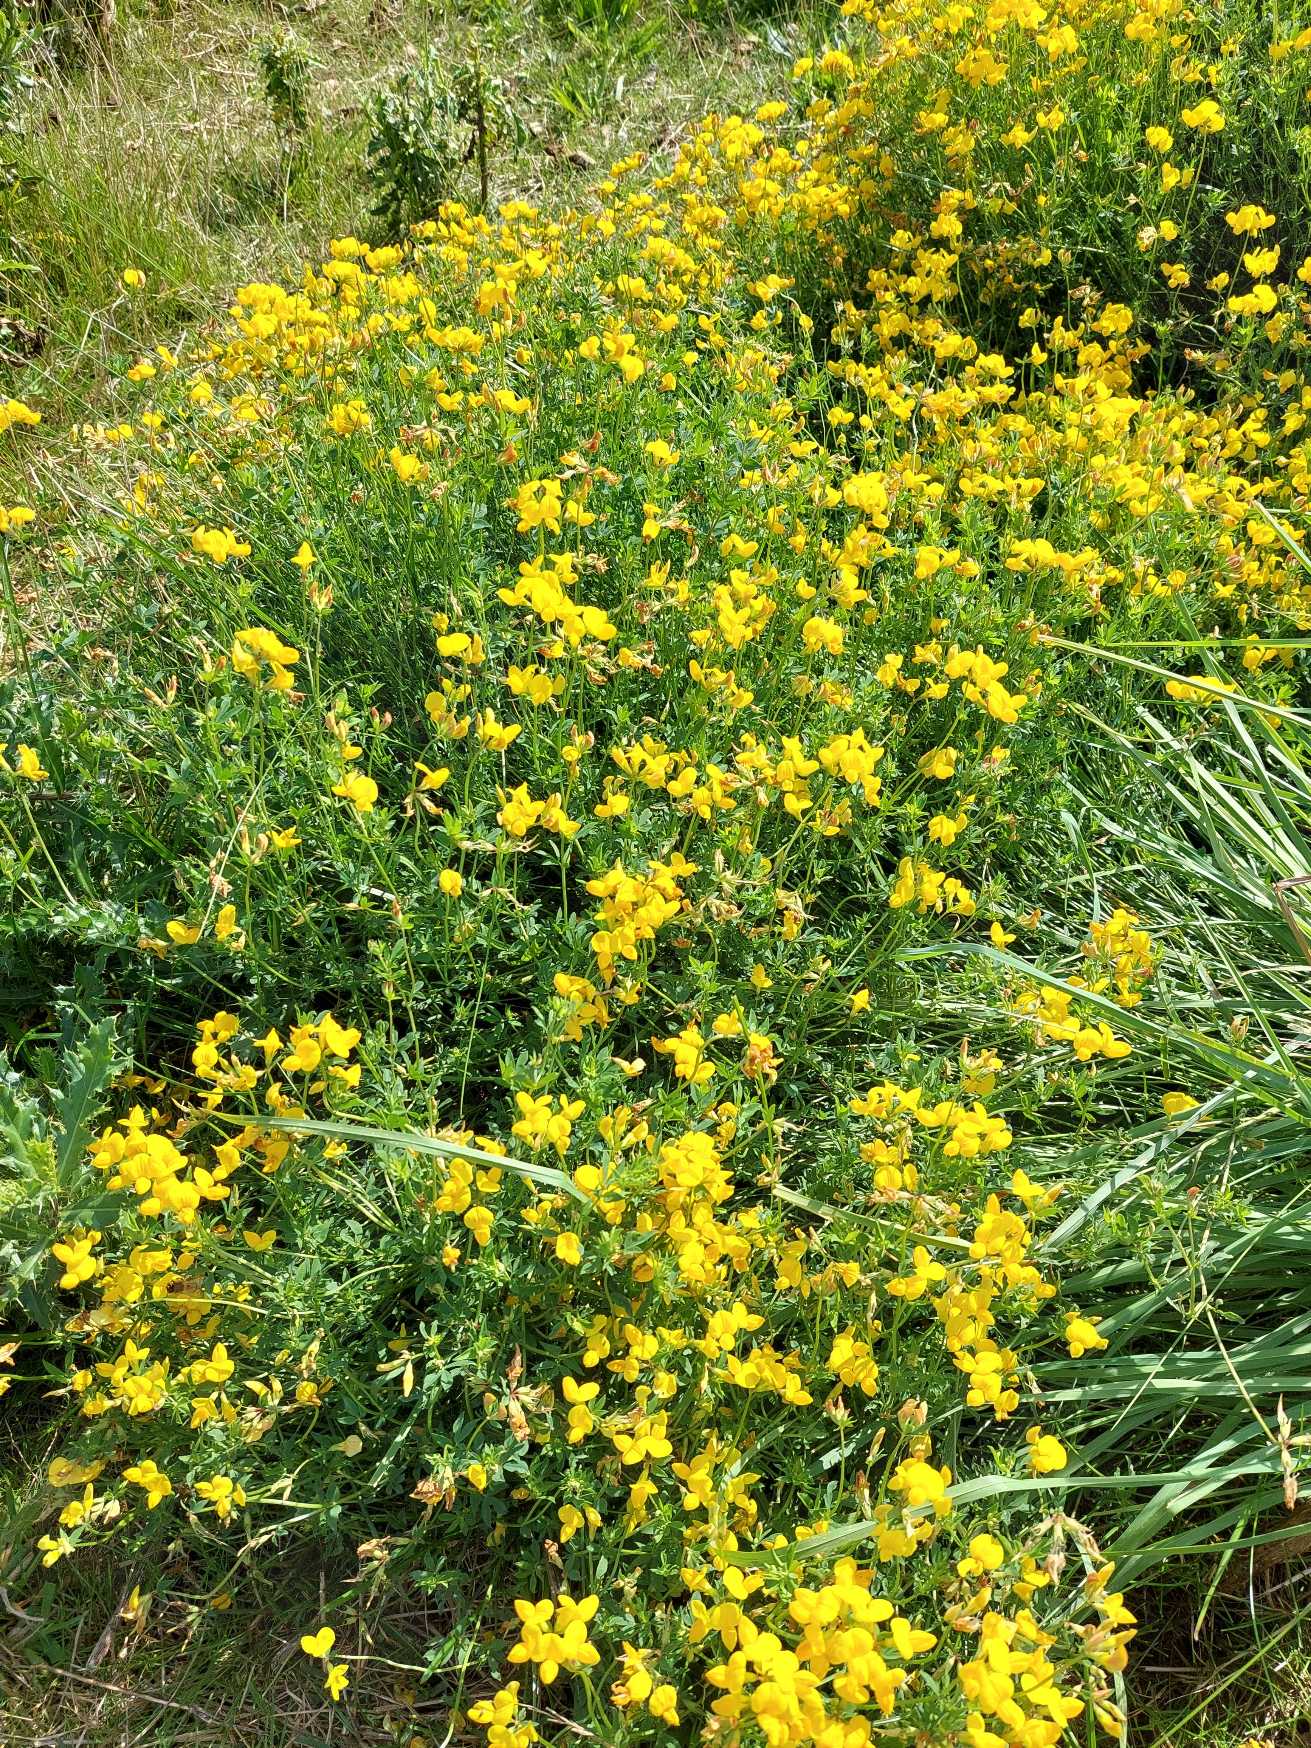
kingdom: Plantae
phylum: Tracheophyta
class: Magnoliopsida
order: Fabales
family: Fabaceae
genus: Lotus
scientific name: Lotus corniculatus
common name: Almindelig kællingetand
